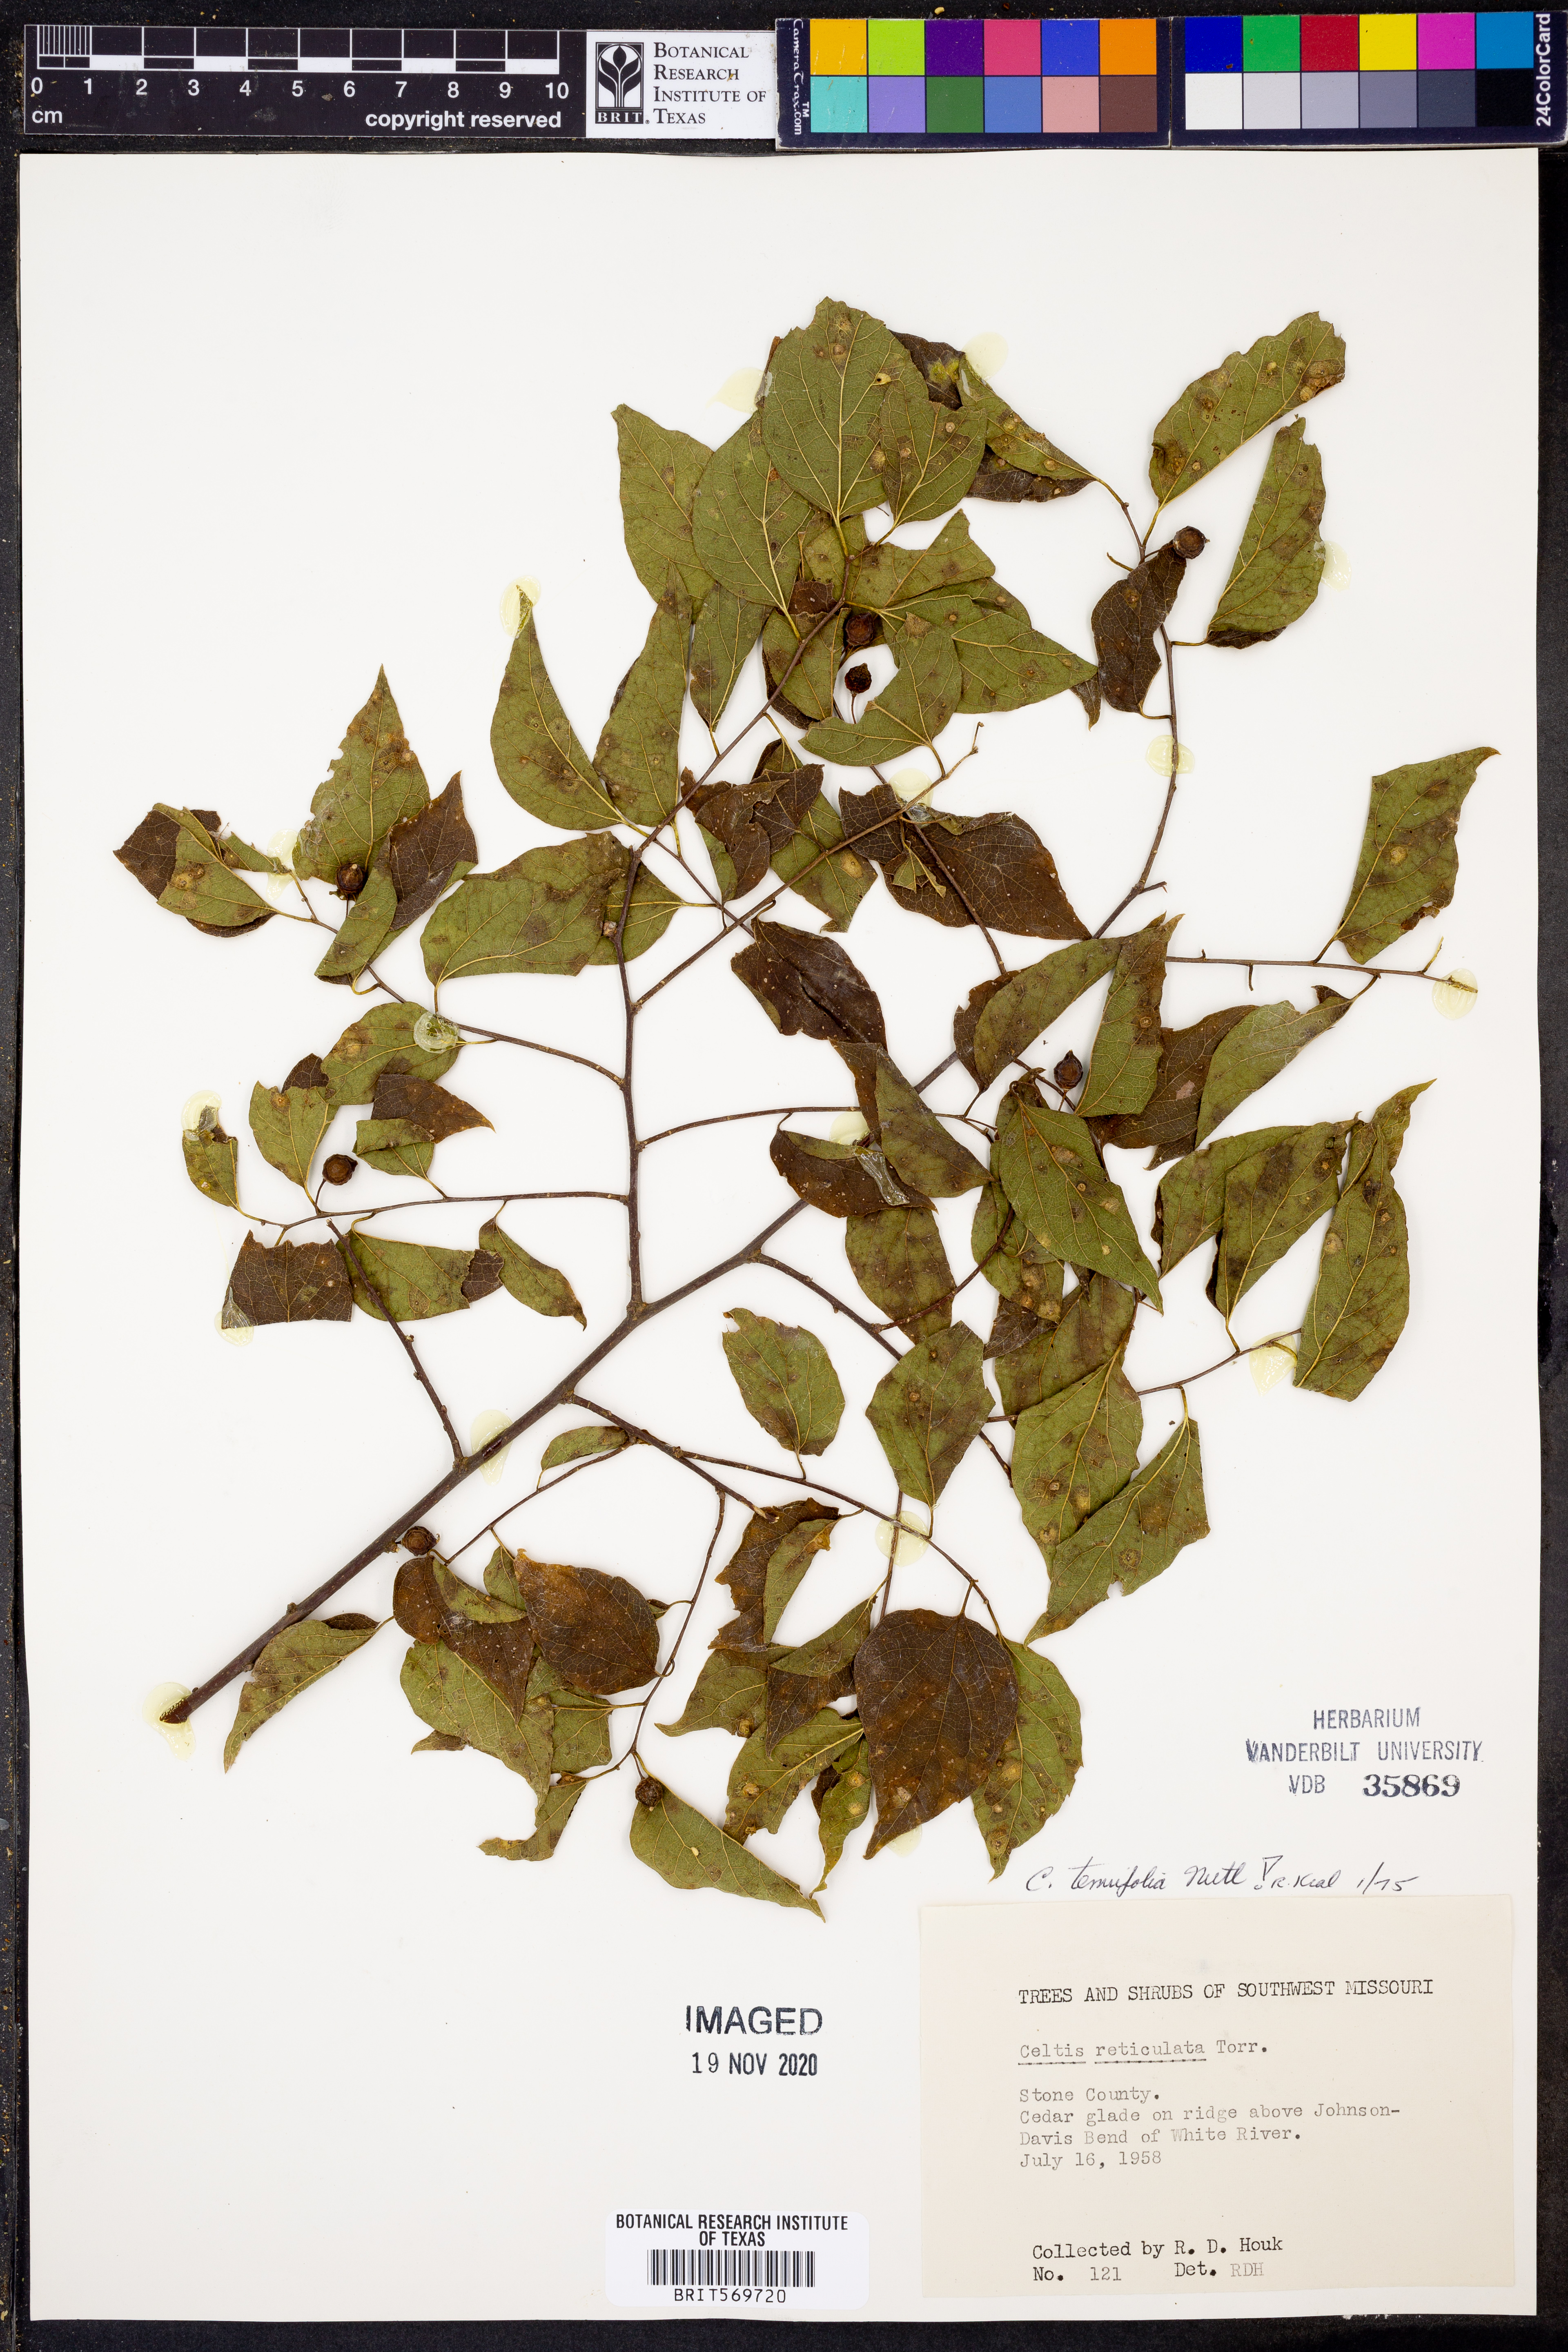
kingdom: Plantae
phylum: Tracheophyta
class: Magnoliopsida
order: Rosales
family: Cannabaceae
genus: Celtis
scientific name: Celtis tenuifolia
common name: Georgia hackberry
